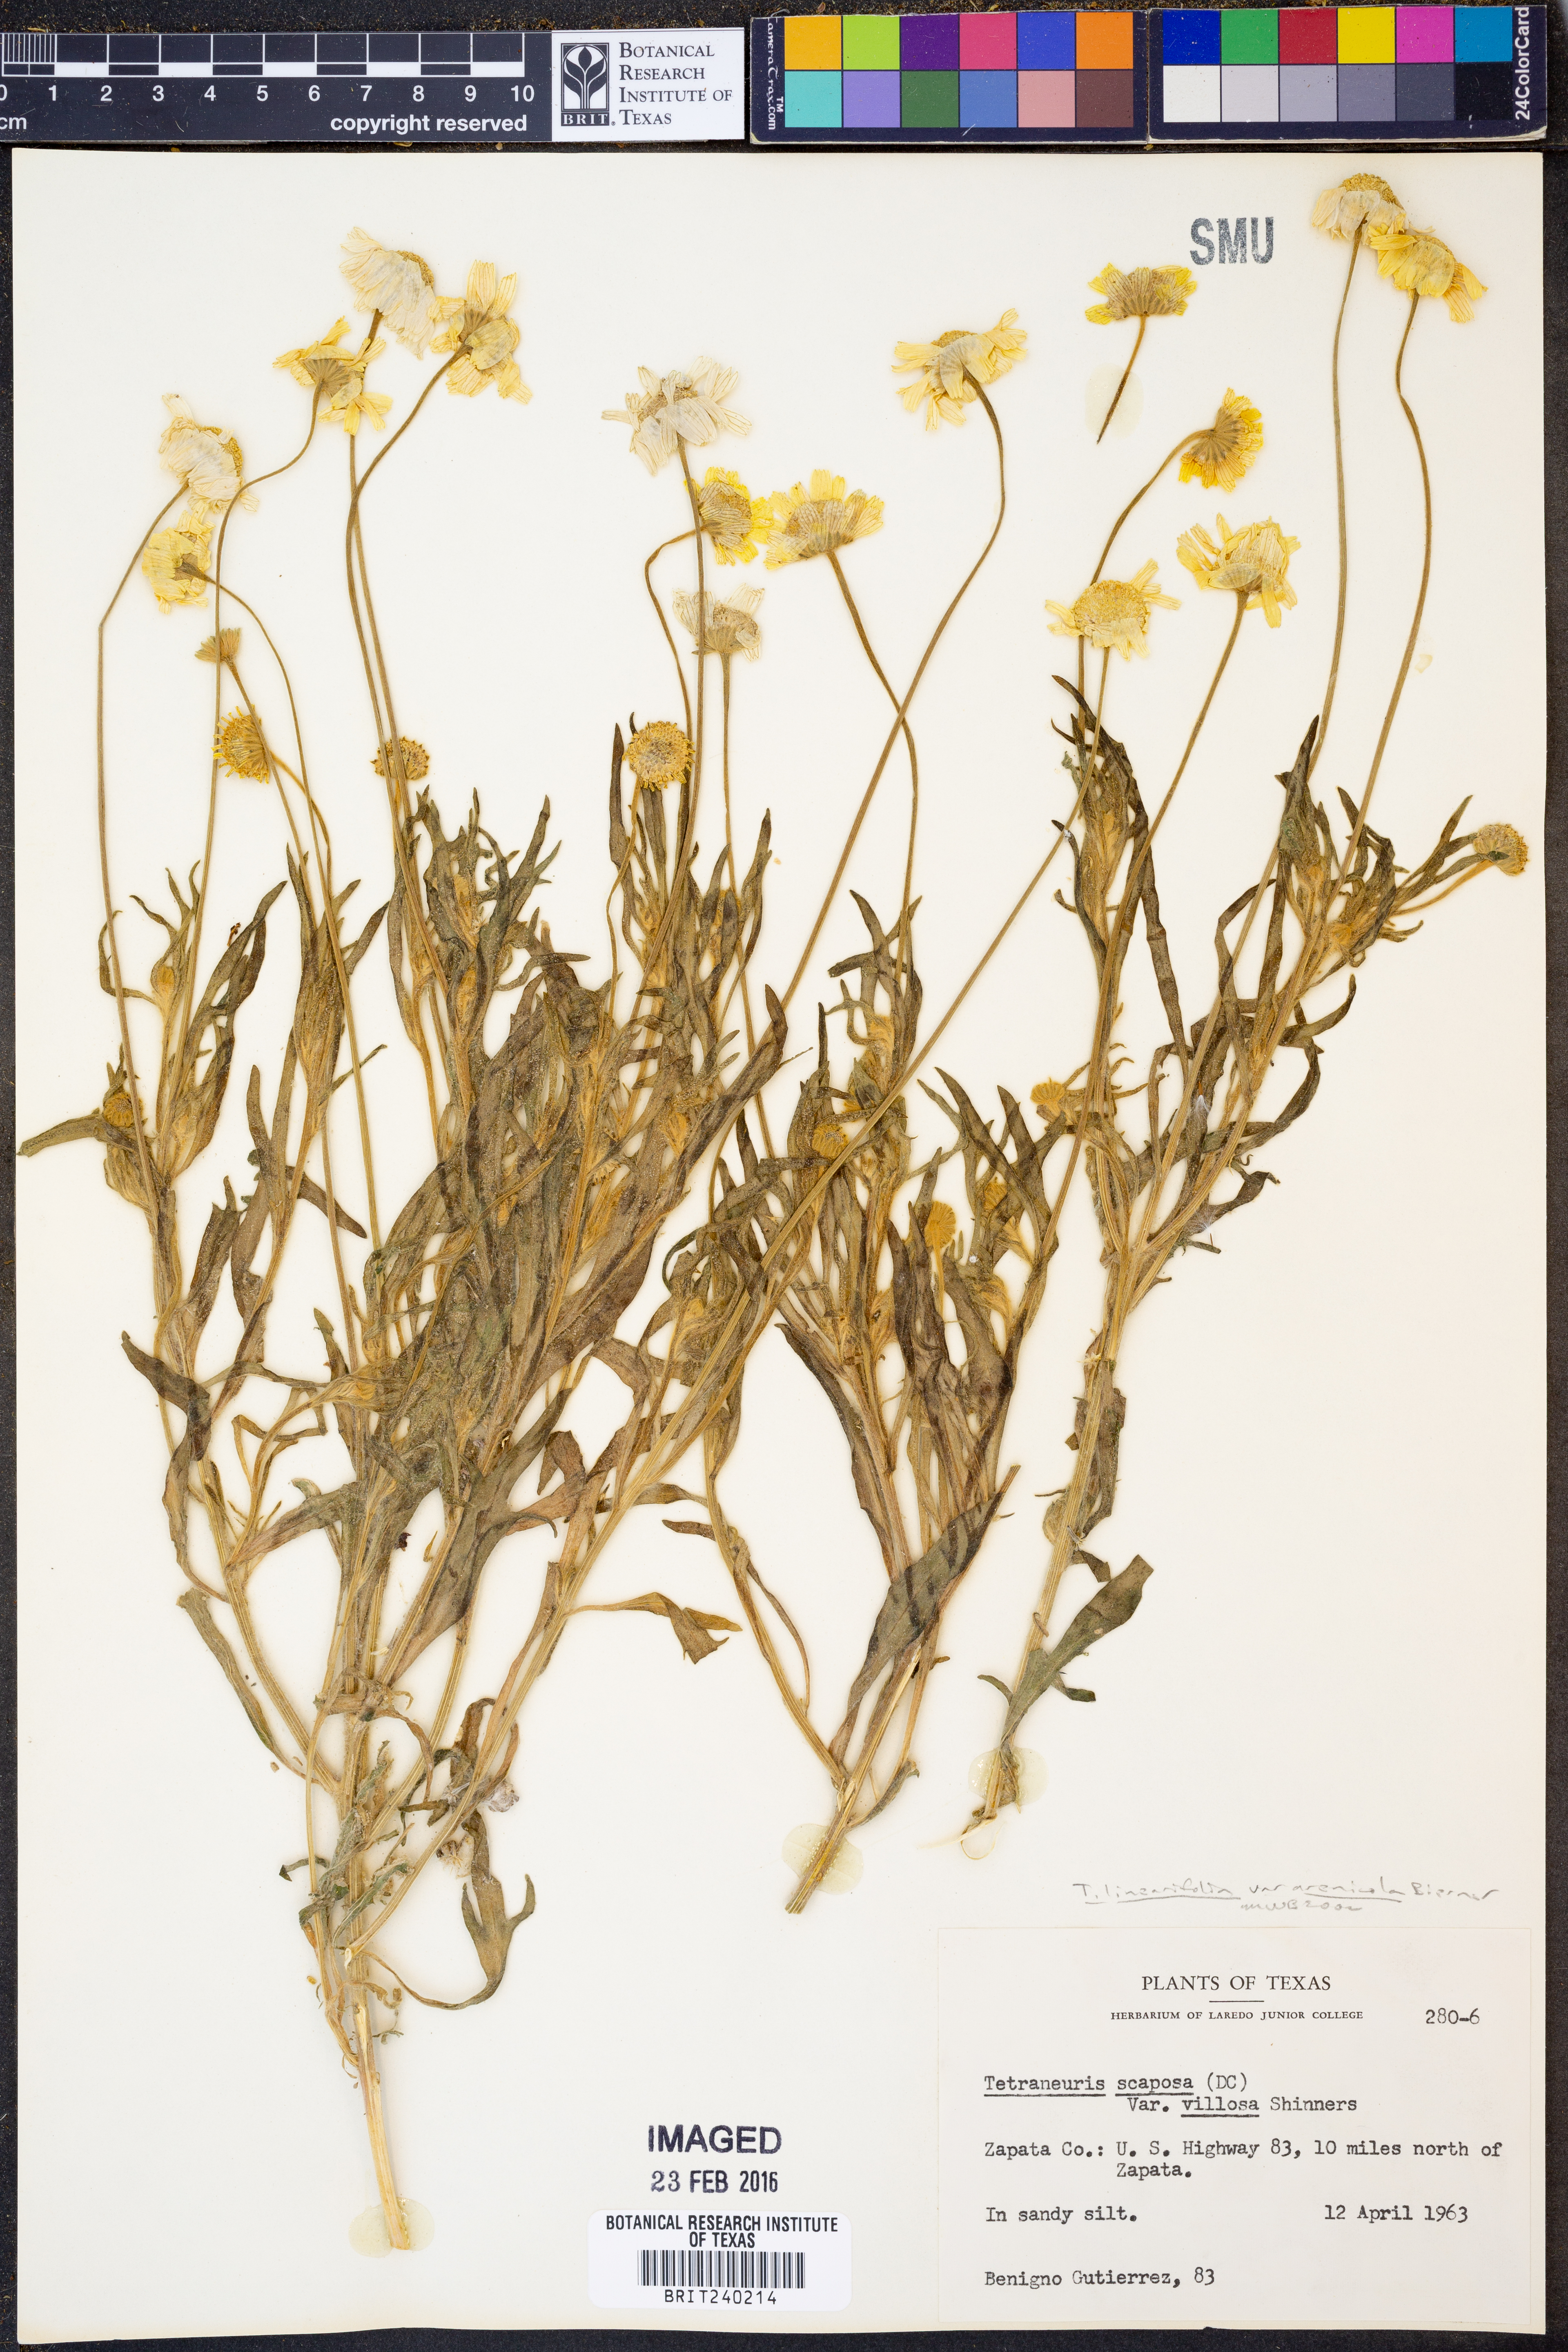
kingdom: Plantae
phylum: Tracheophyta
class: Magnoliopsida
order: Asterales
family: Asteraceae
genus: Tetraneuris
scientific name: Tetraneuris linearifolia
